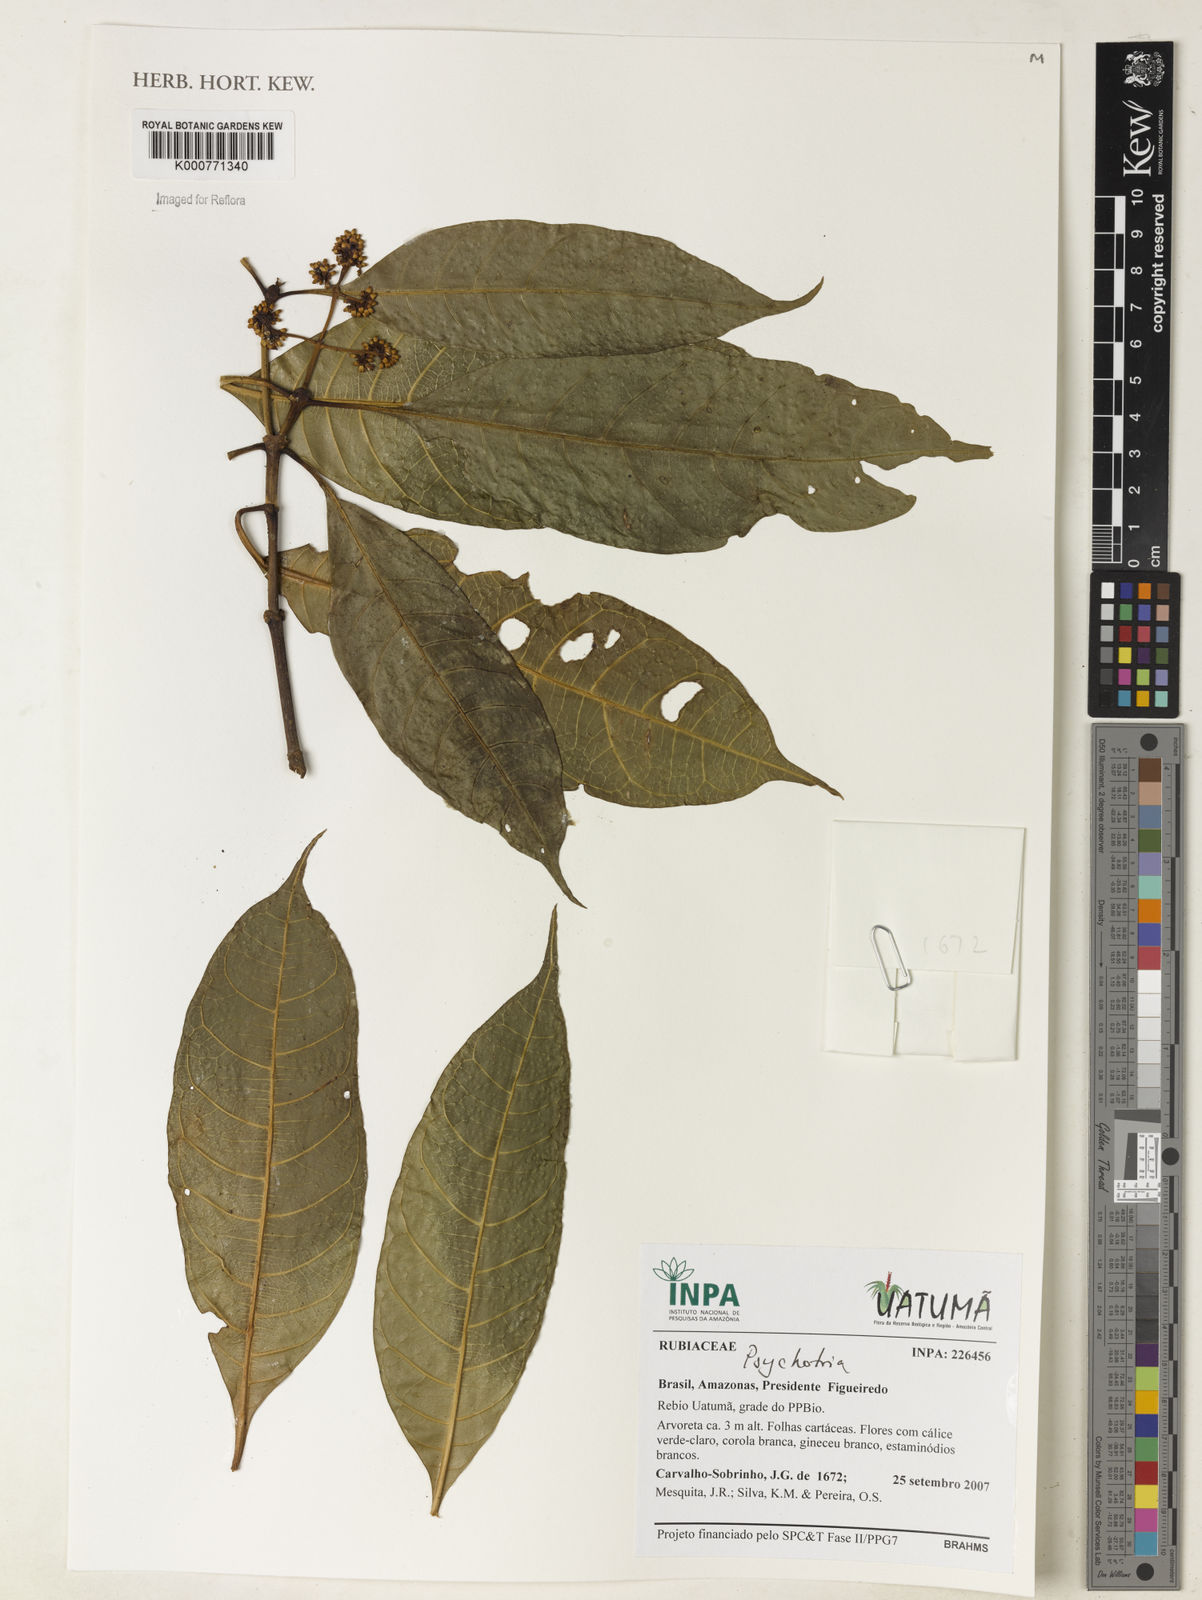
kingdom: Plantae
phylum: Tracheophyta
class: Magnoliopsida
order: Gentianales
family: Rubiaceae
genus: Psychotria
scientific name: Psychotria
